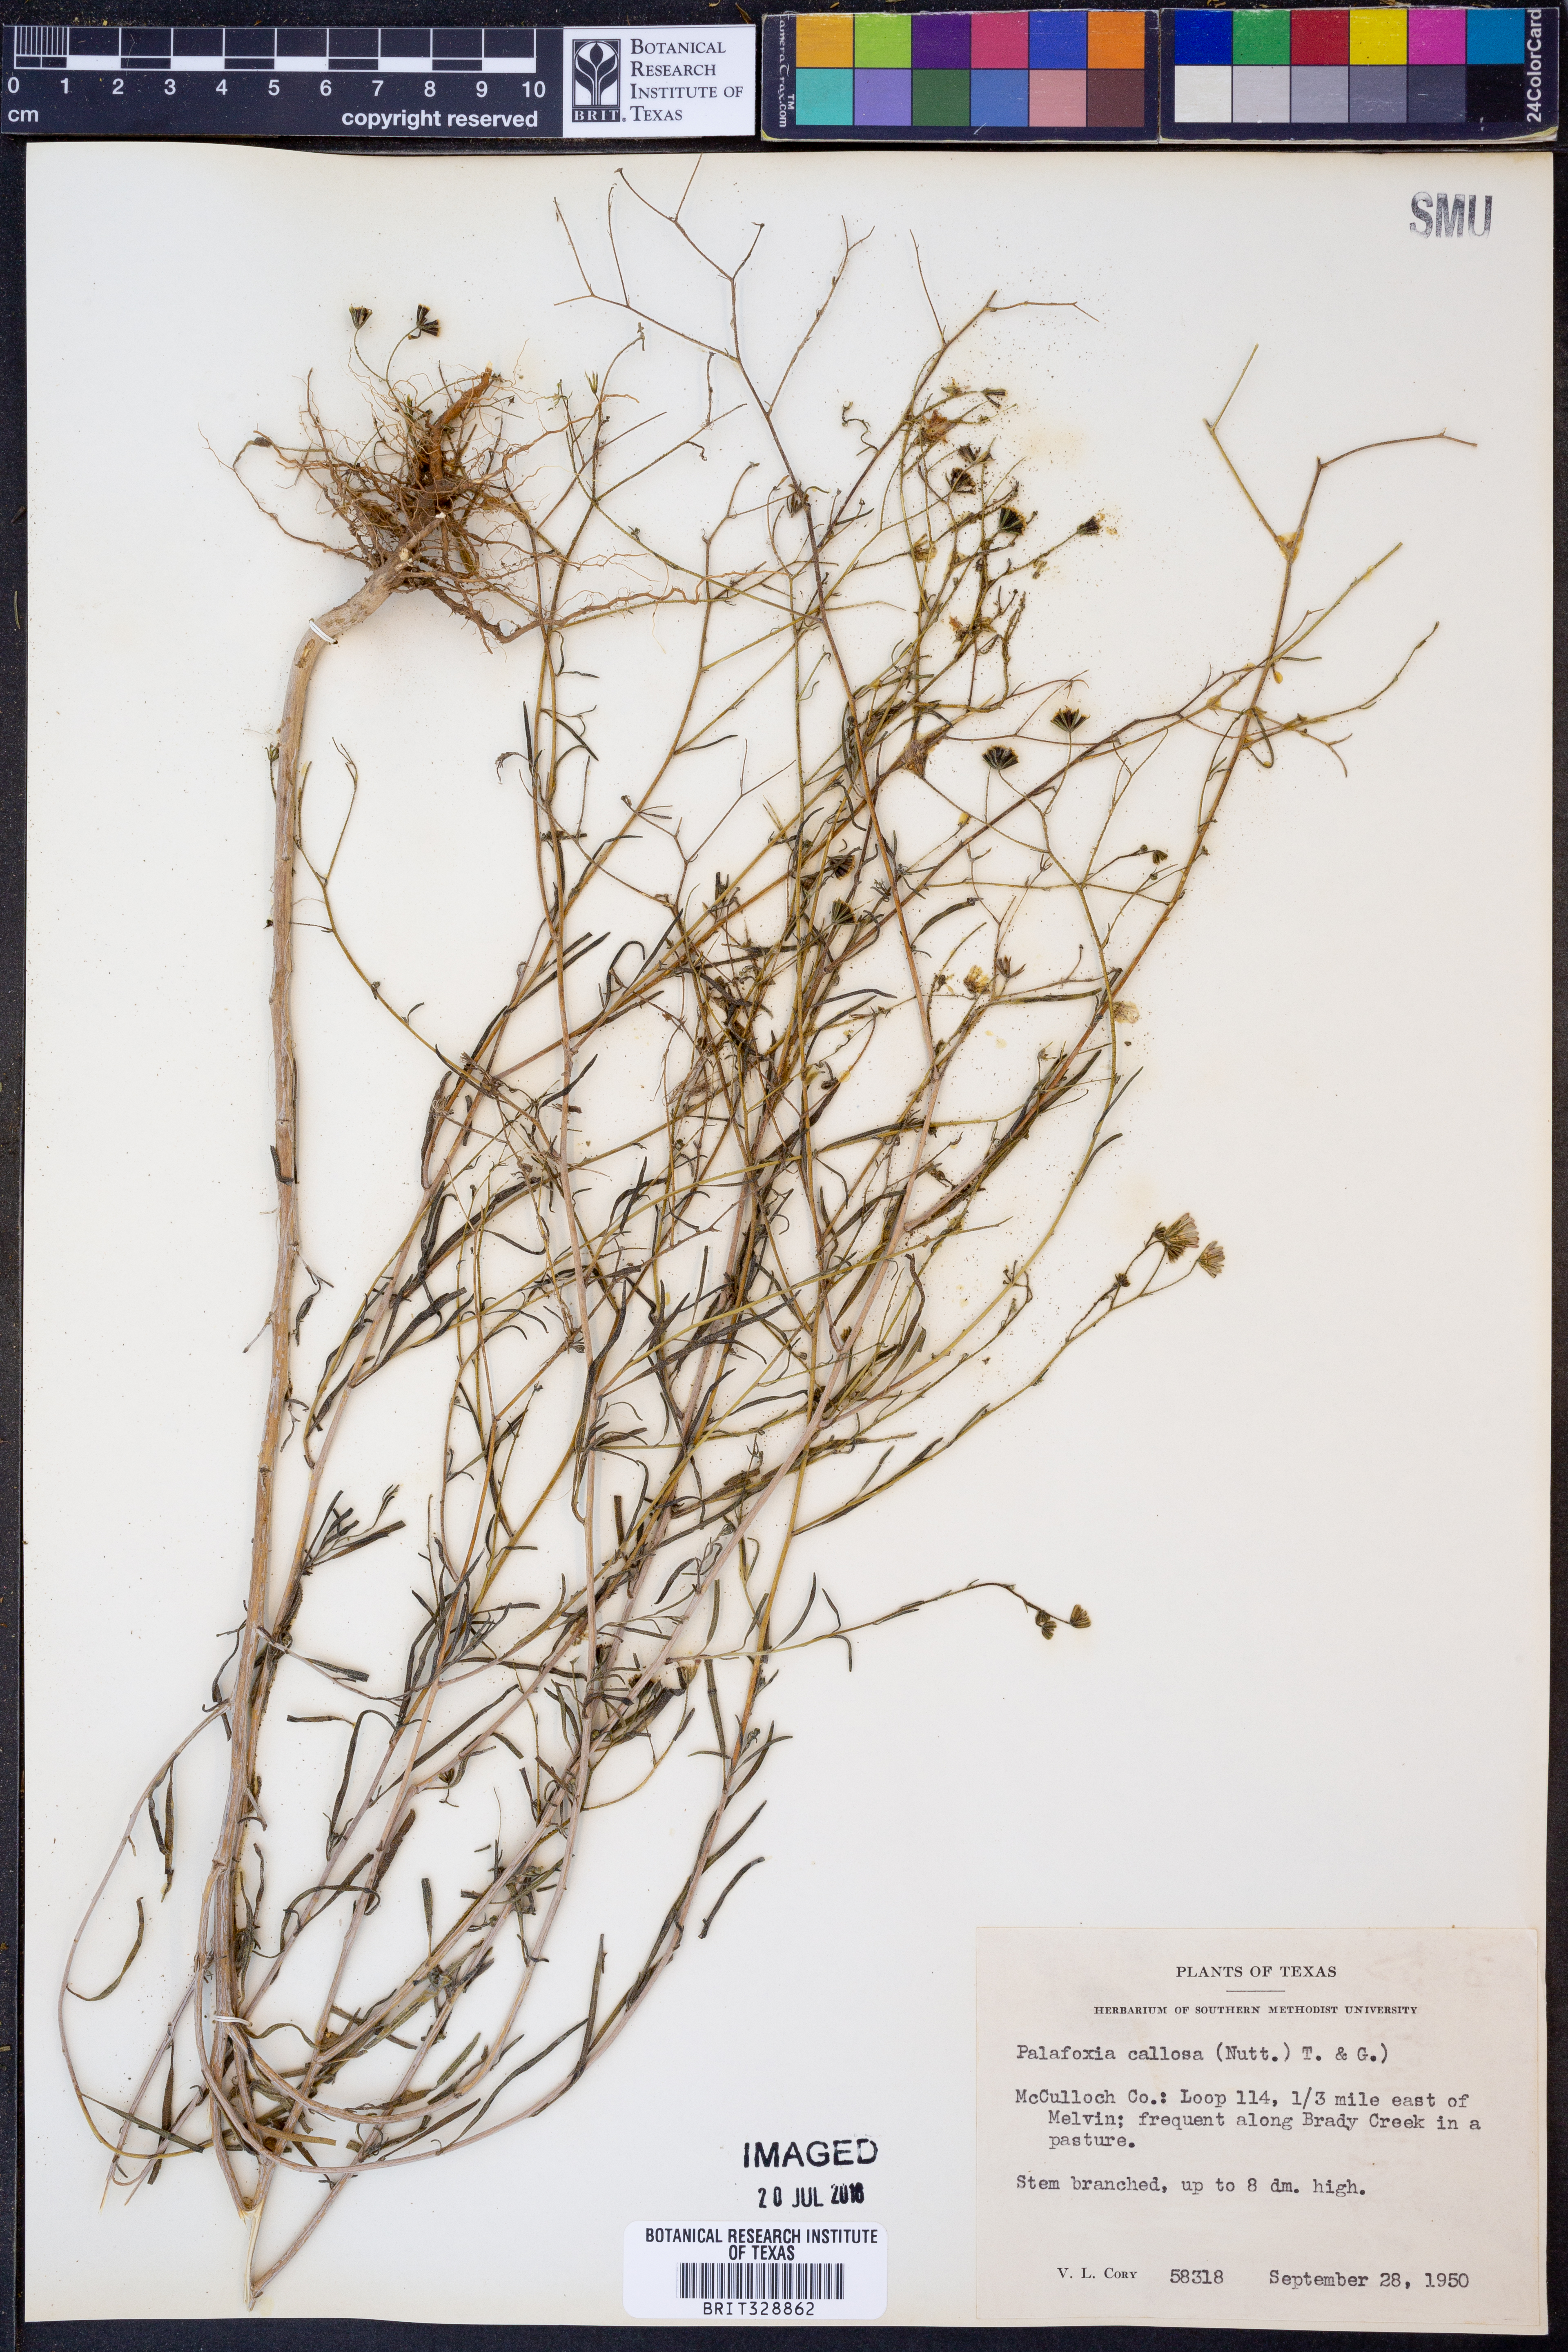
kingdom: Plantae
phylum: Tracheophyta
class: Magnoliopsida
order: Asterales
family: Asteraceae
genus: Palafoxia
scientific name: Palafoxia callosa
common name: Small palafox
